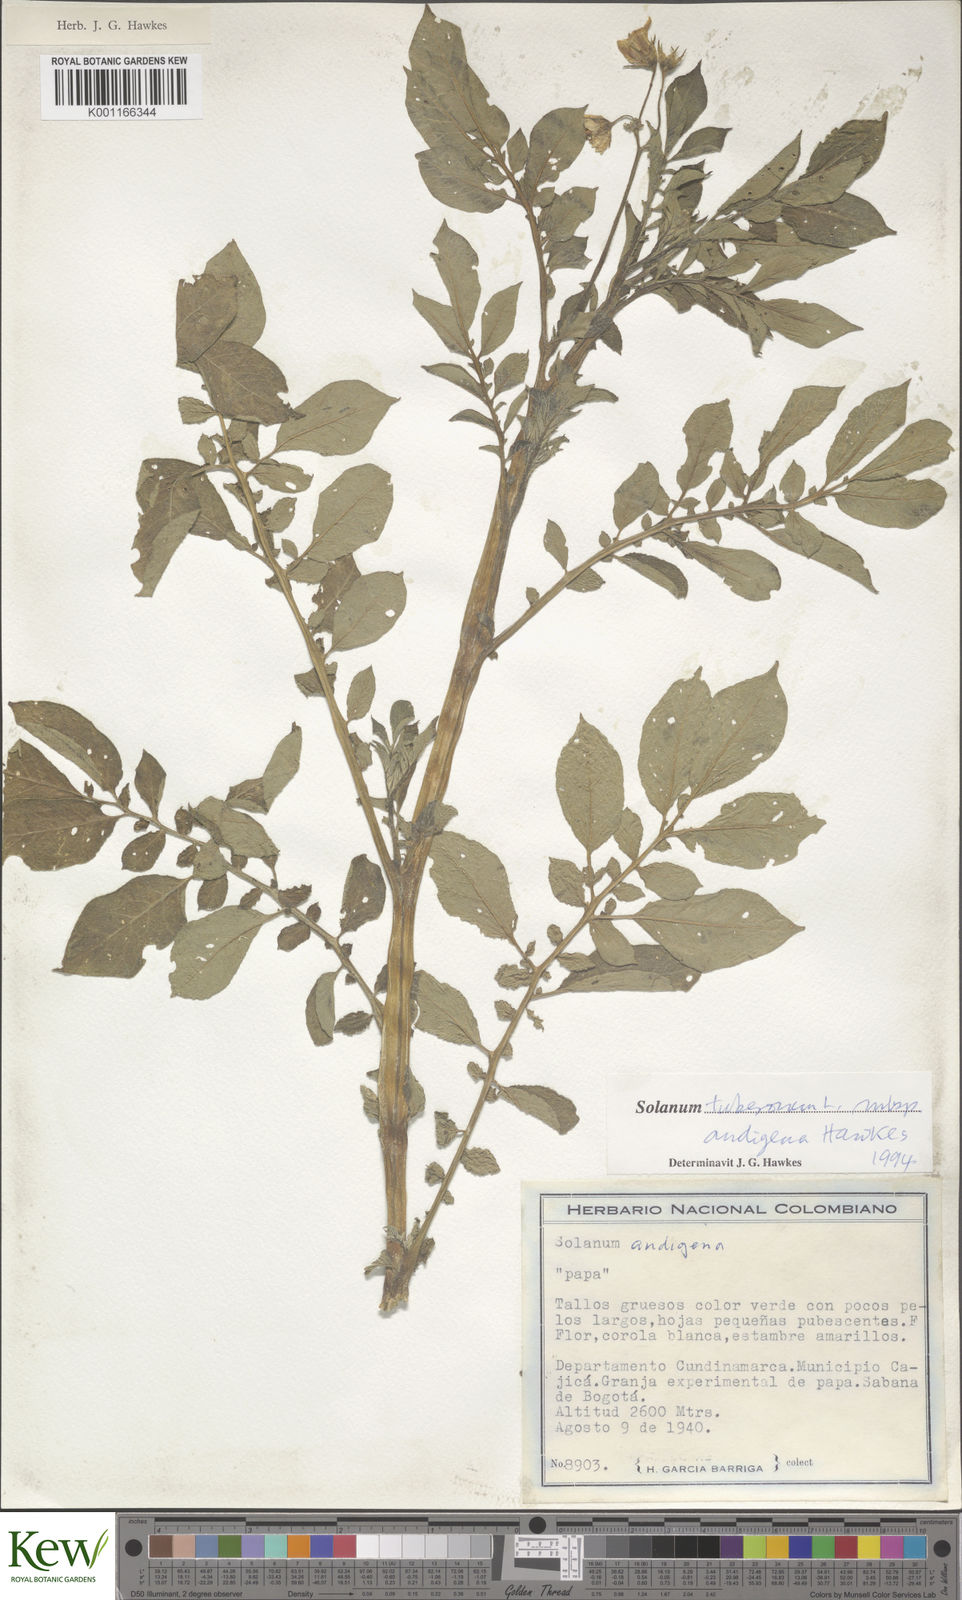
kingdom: Plantae
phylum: Tracheophyta
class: Magnoliopsida
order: Solanales
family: Solanaceae
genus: Solanum
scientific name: Solanum tuberosum
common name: Potato
